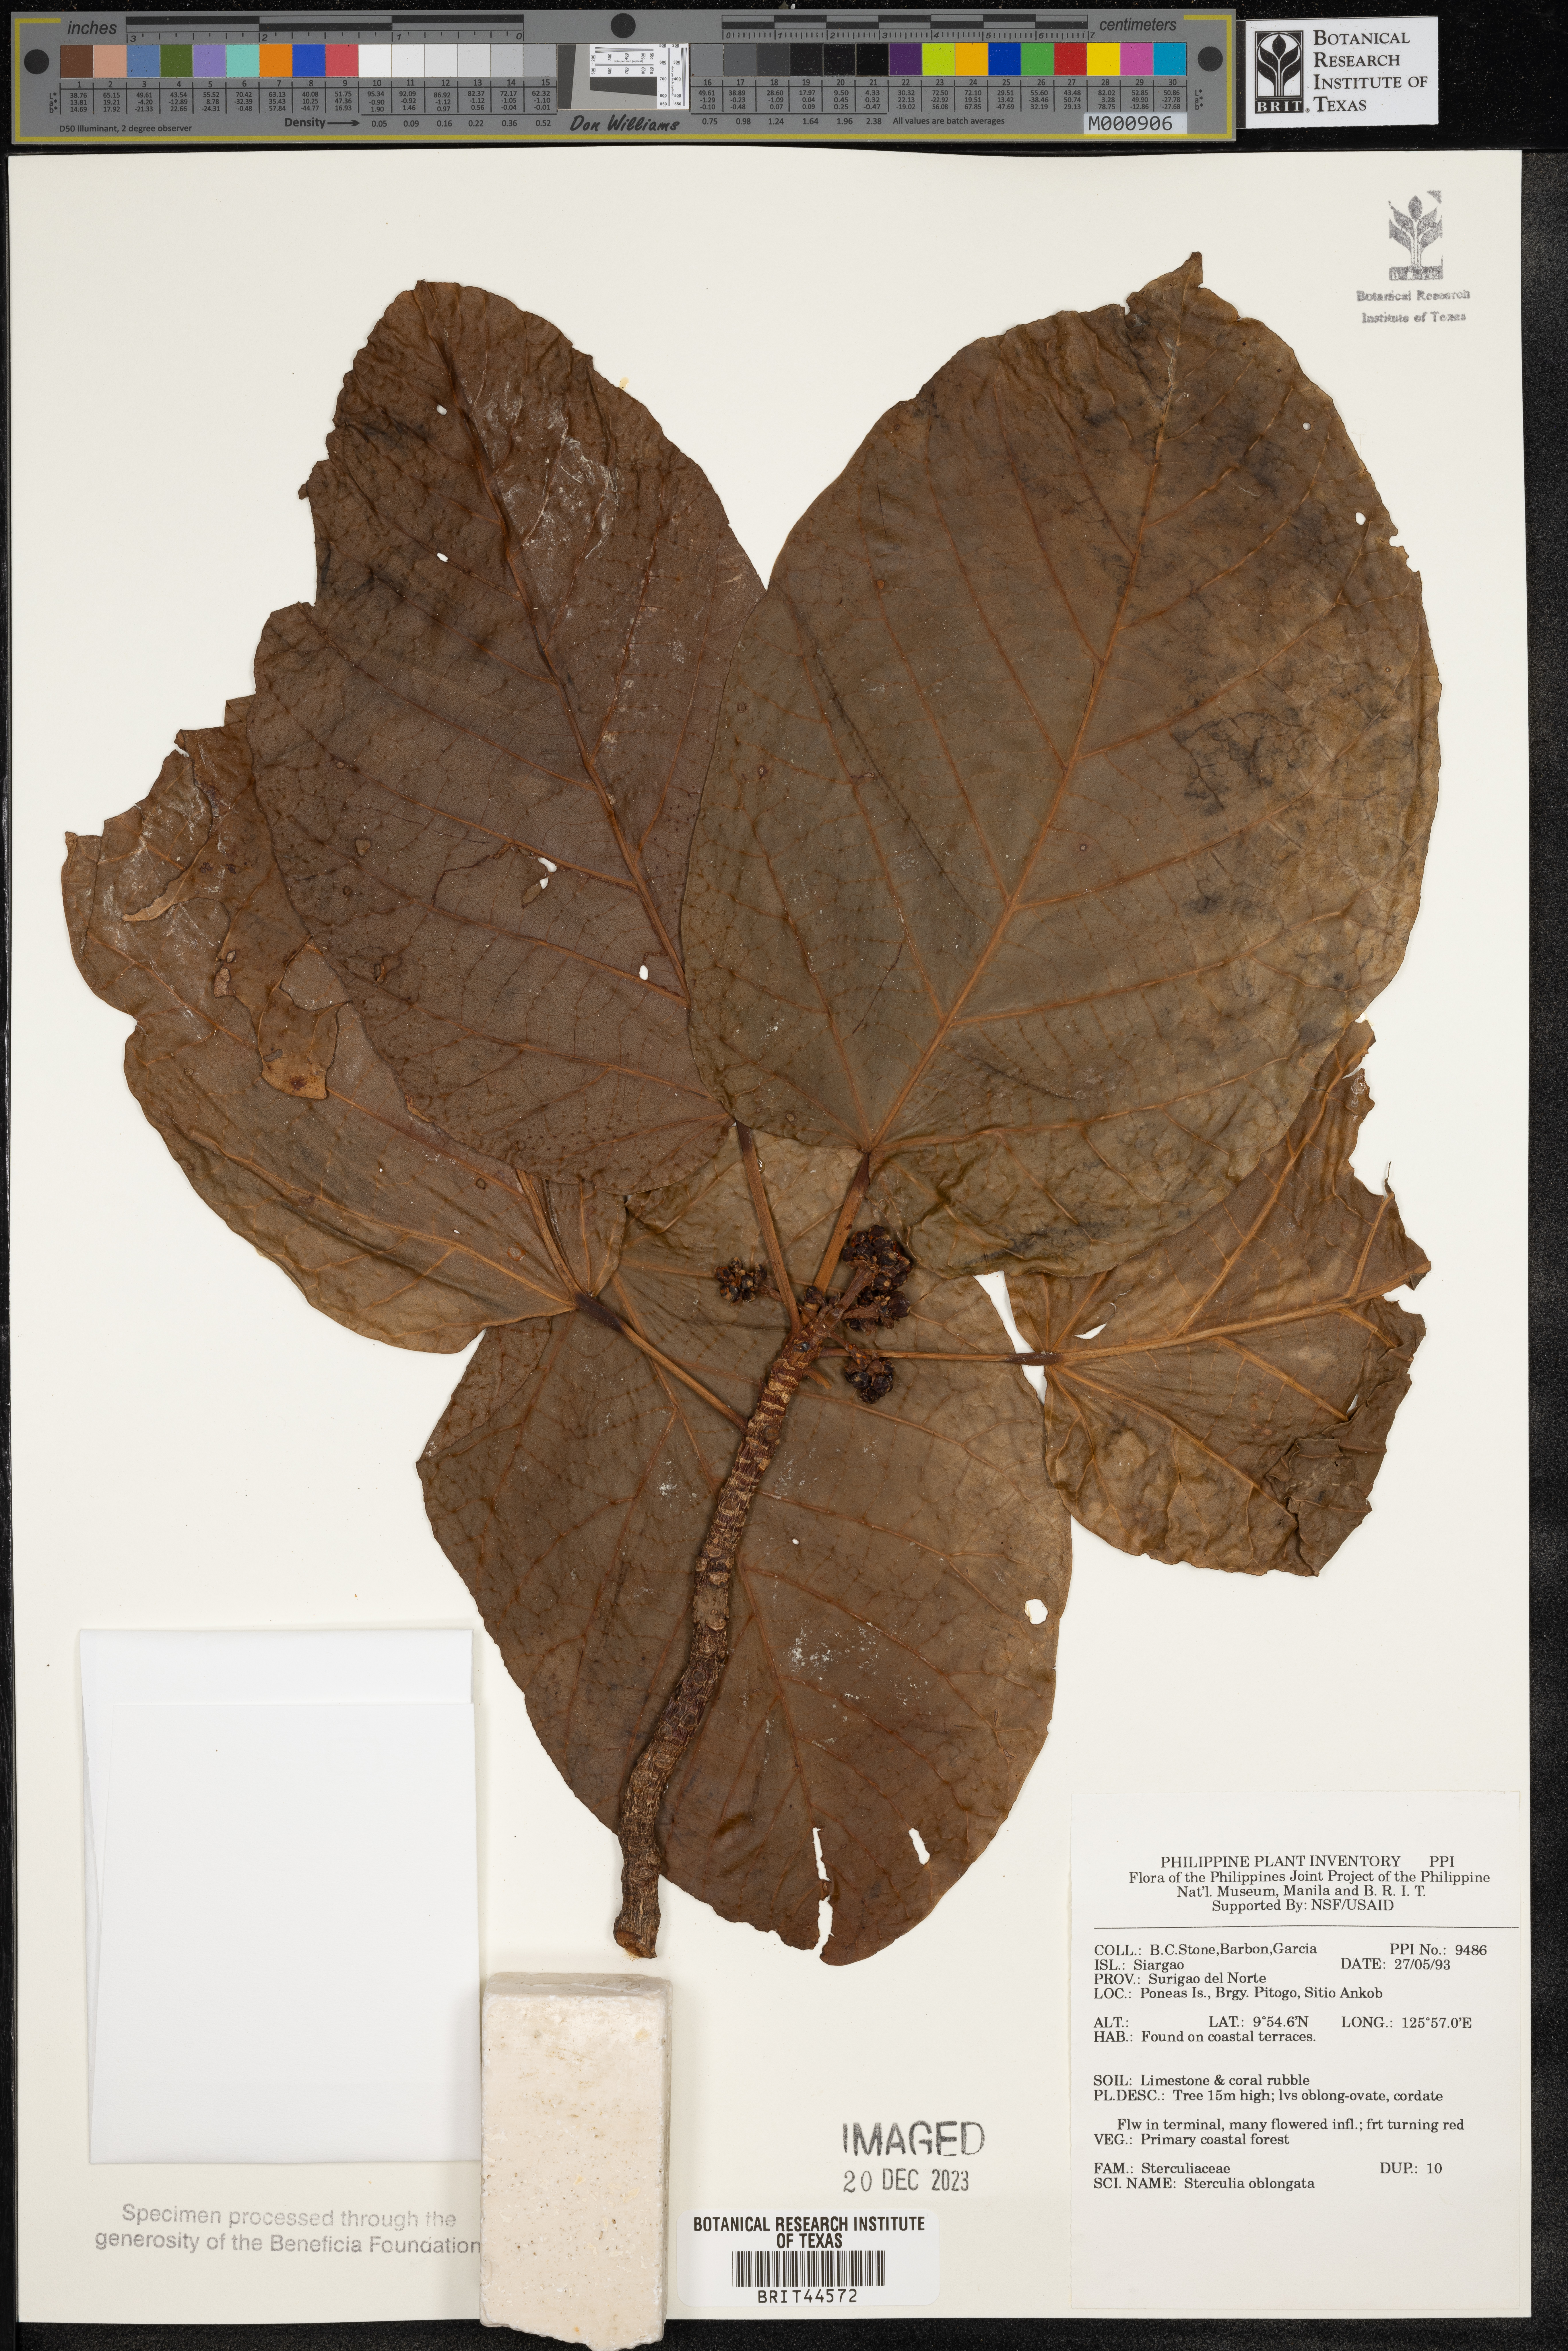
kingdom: Plantae
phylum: Tracheophyta
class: Magnoliopsida
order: Malvales
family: Malvaceae
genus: Sterculia
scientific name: Sterculia oblongata
